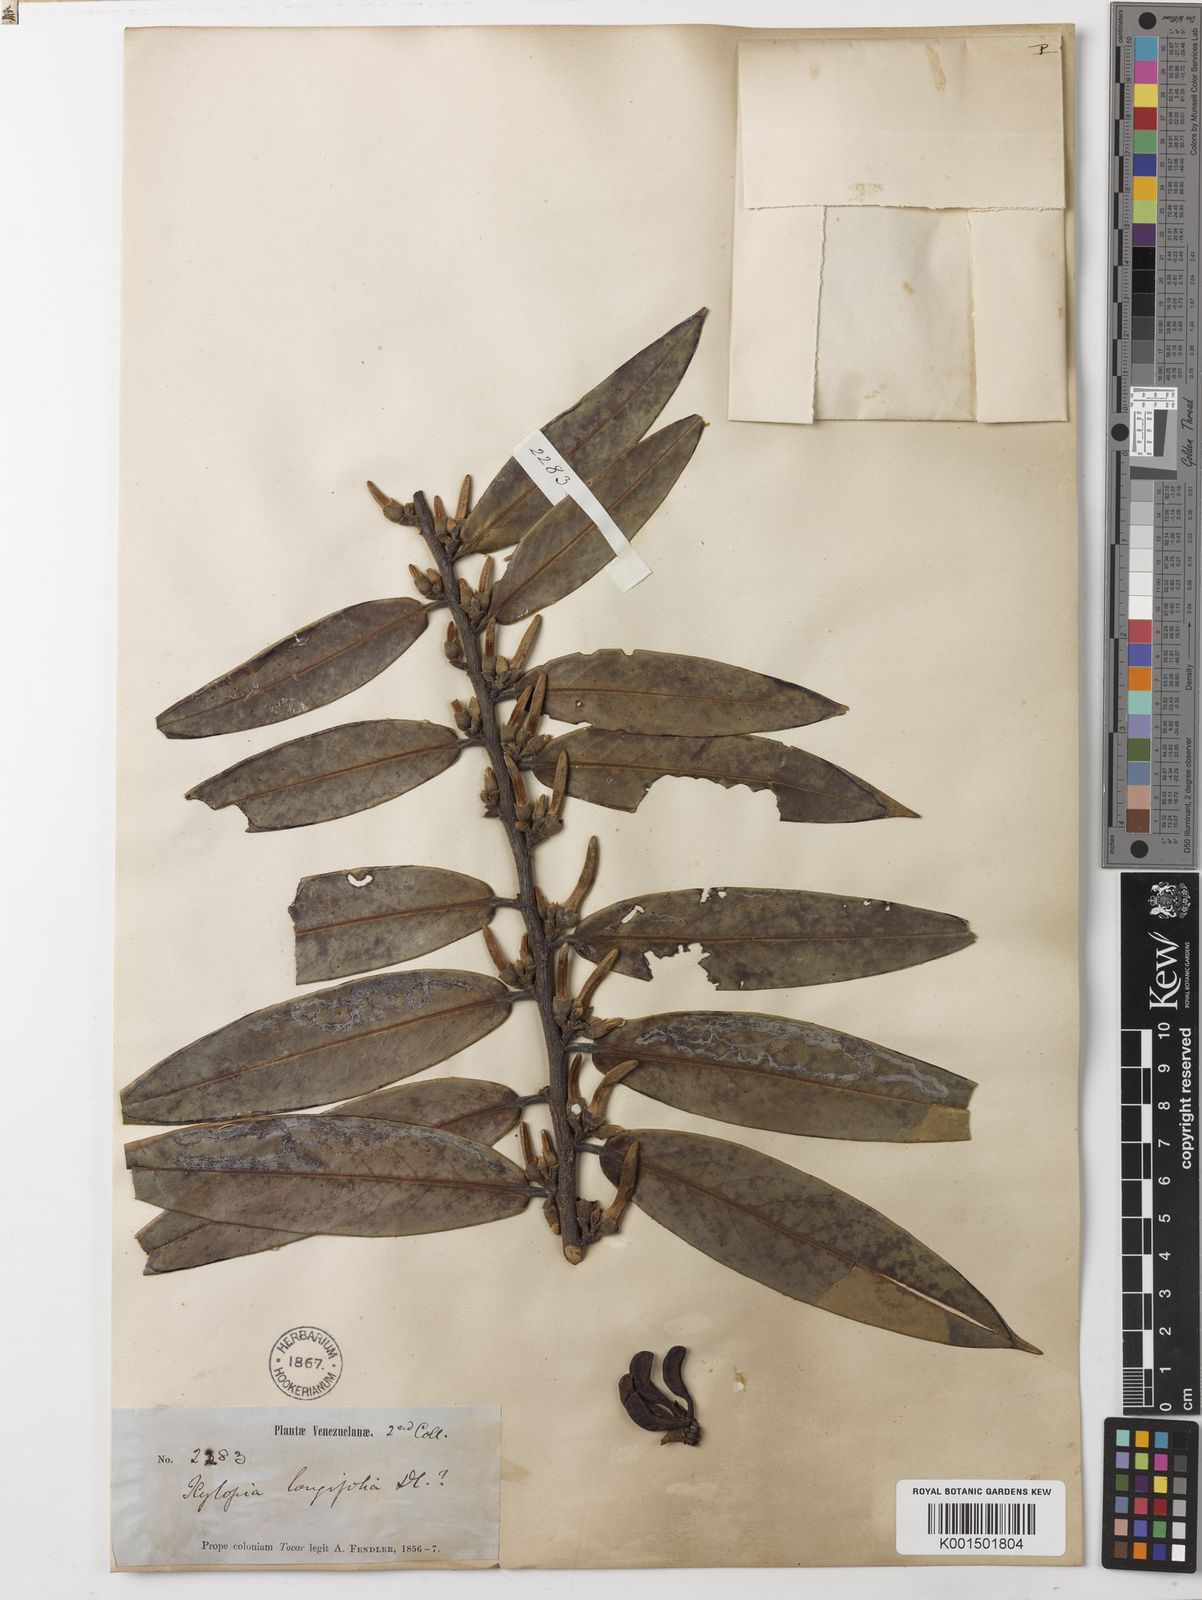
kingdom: Plantae
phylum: Tracheophyta
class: Magnoliopsida
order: Magnoliales
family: Annonaceae
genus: Xylopia
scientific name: Xylopia aromatica
